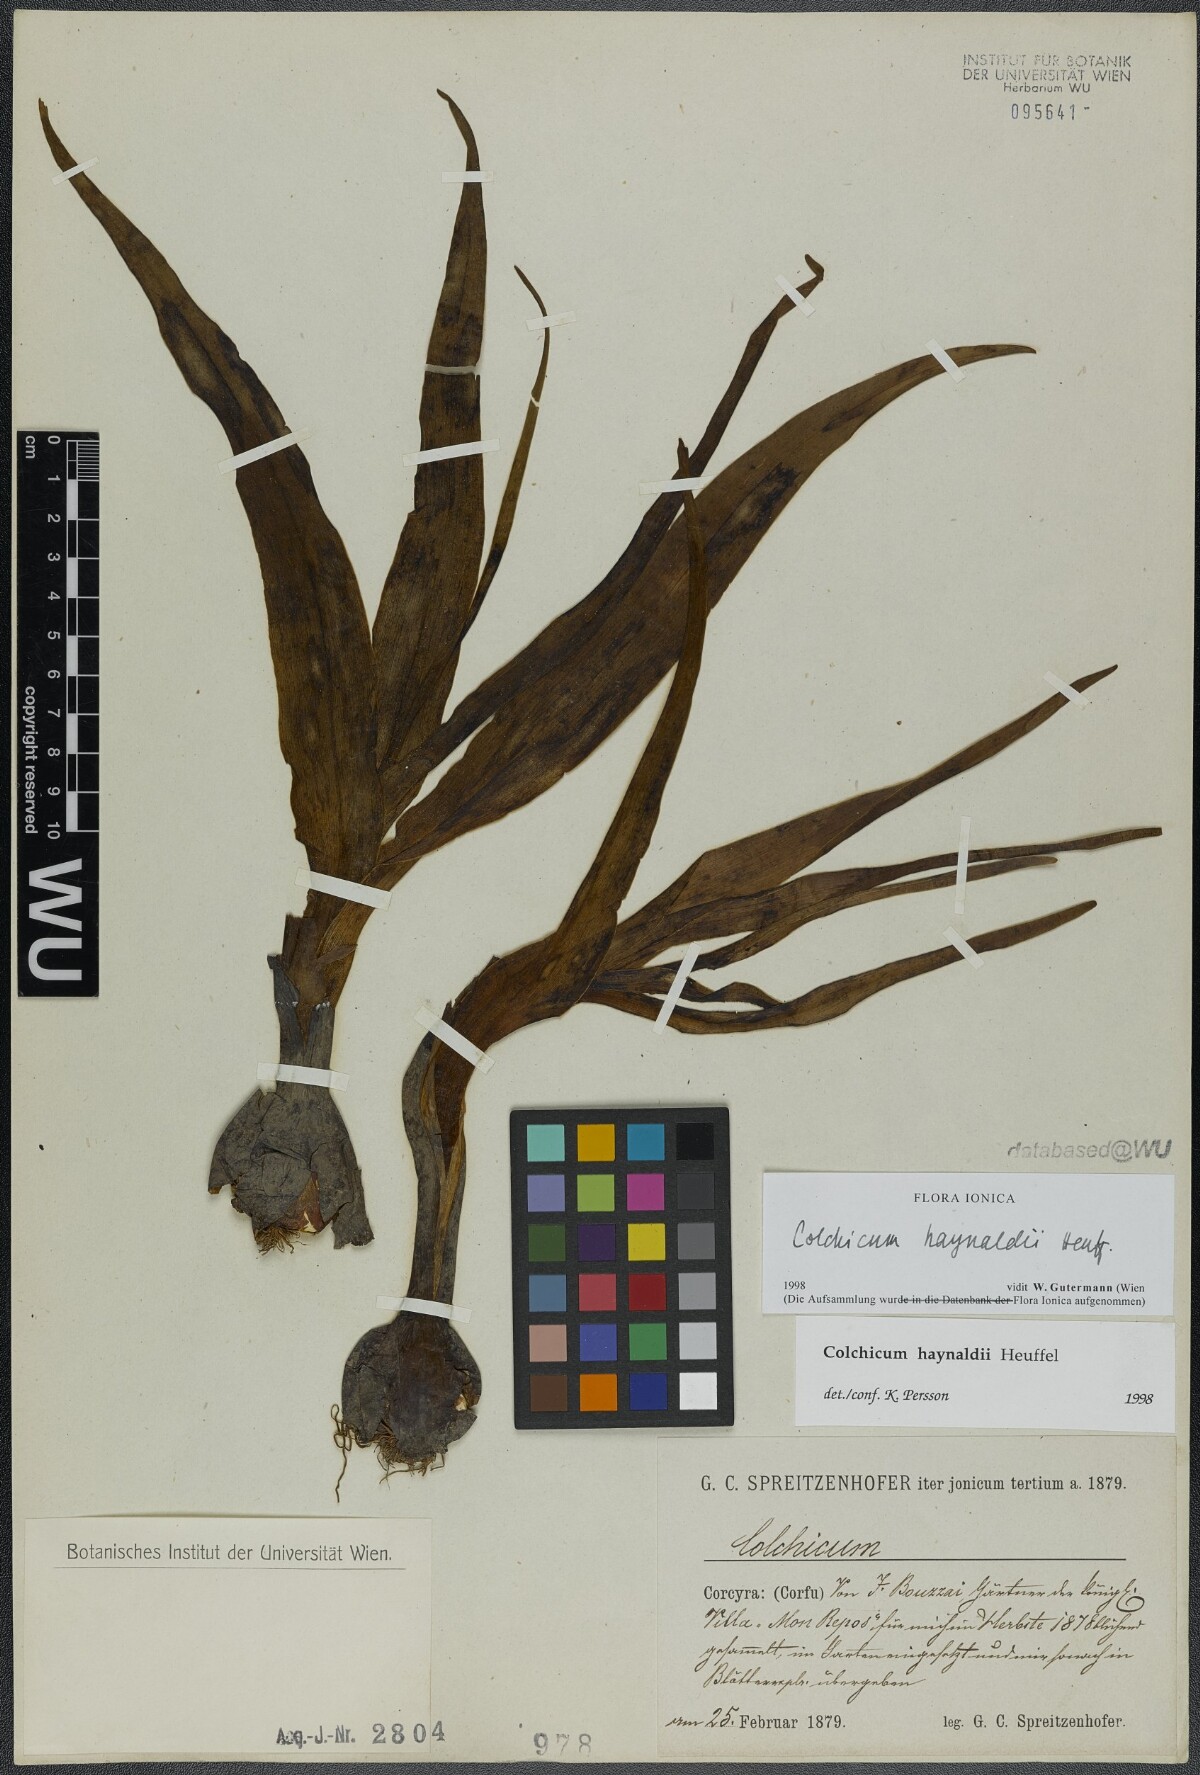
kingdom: Plantae
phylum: Tracheophyta
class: Liliopsida
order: Liliales
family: Colchicaceae
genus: Colchicum
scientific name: Colchicum haynaldii
